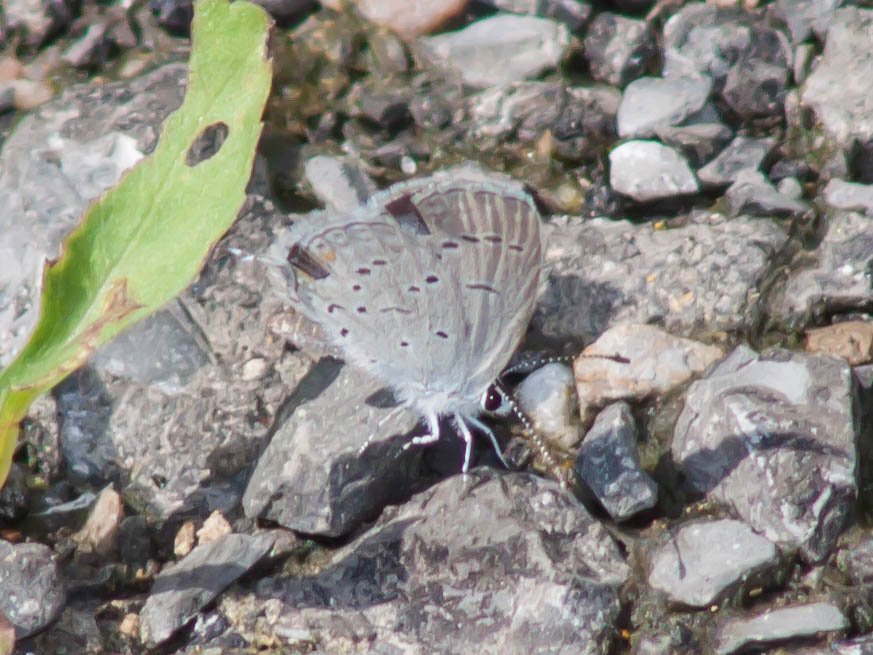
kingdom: Animalia
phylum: Arthropoda
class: Insecta
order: Lepidoptera
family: Lycaenidae
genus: Elkalyce
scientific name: Elkalyce comyntas
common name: Eastern Tailed-Blue
